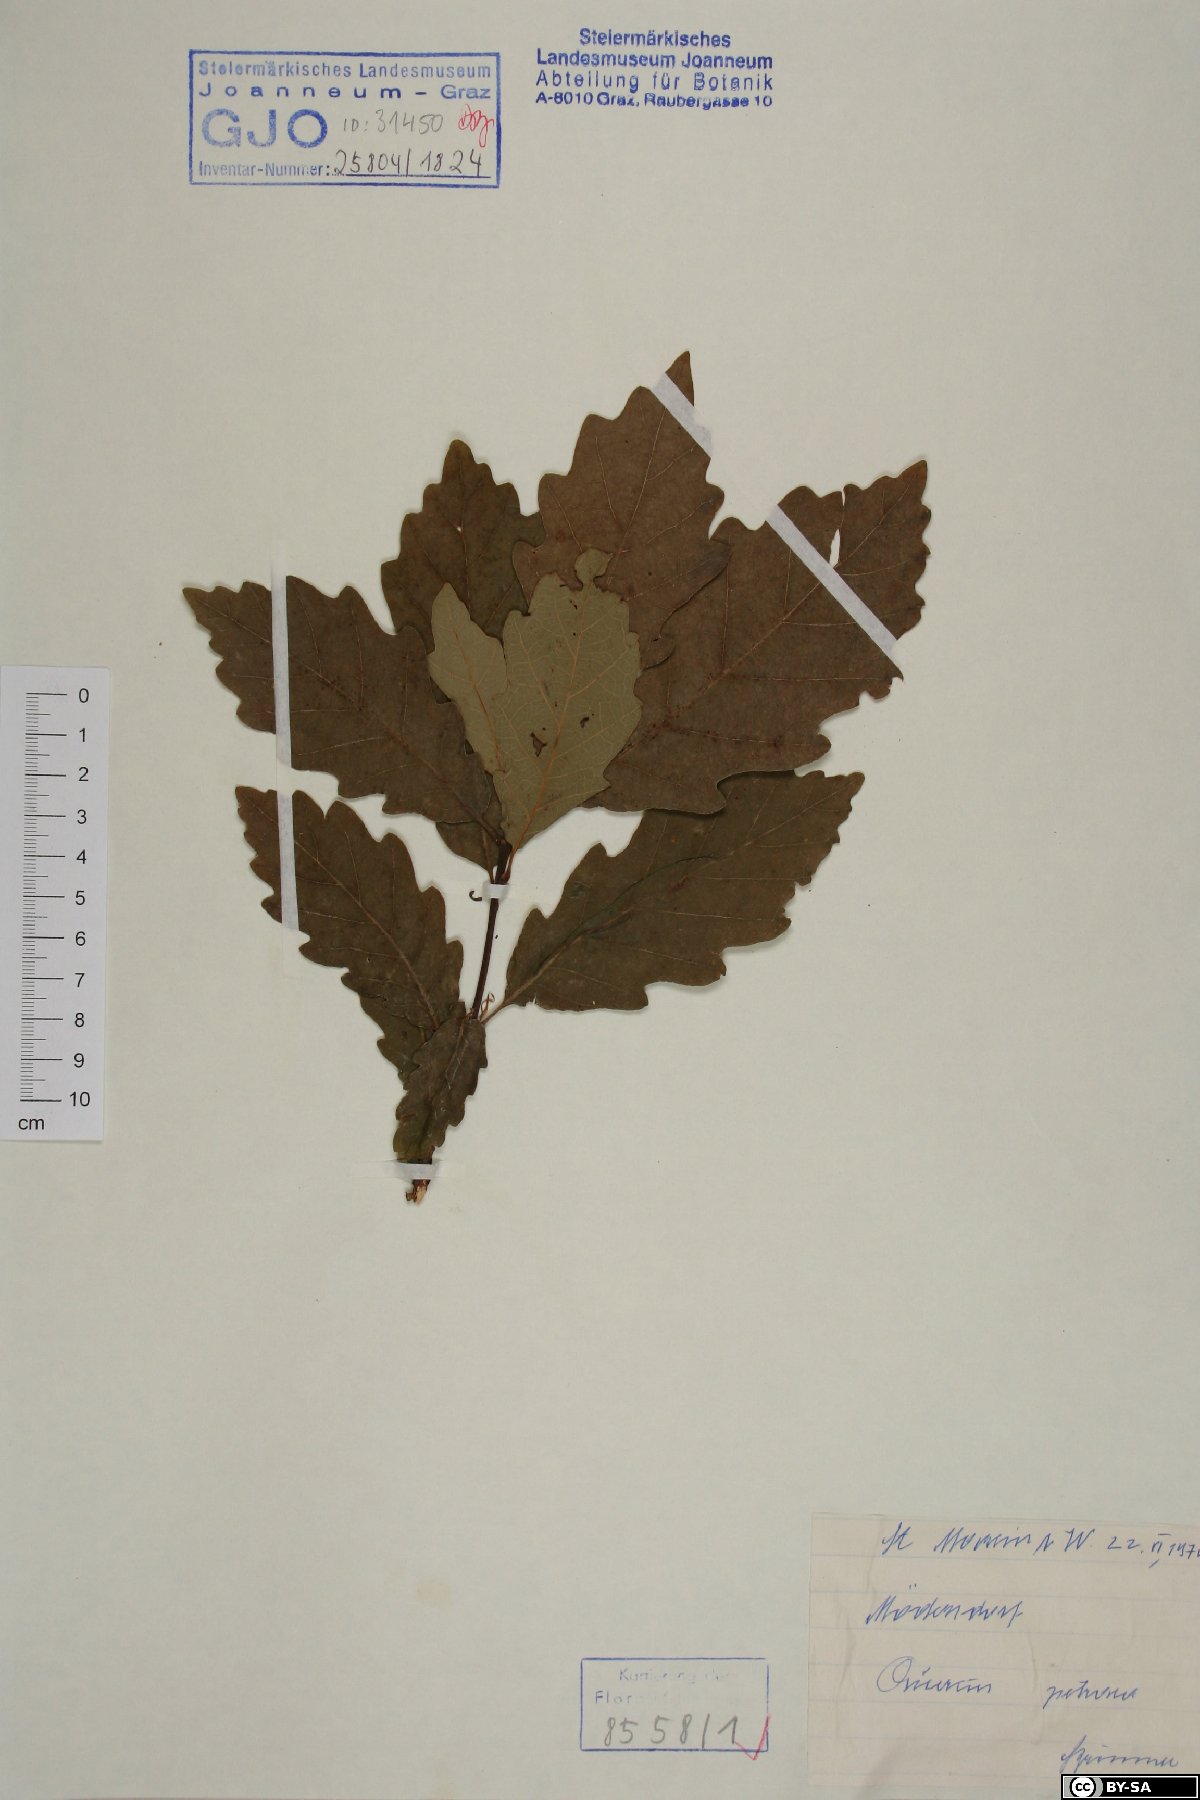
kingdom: Plantae
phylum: Tracheophyta
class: Magnoliopsida
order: Fagales
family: Fagaceae
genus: Quercus
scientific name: Quercus petraea
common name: Sessile oak
